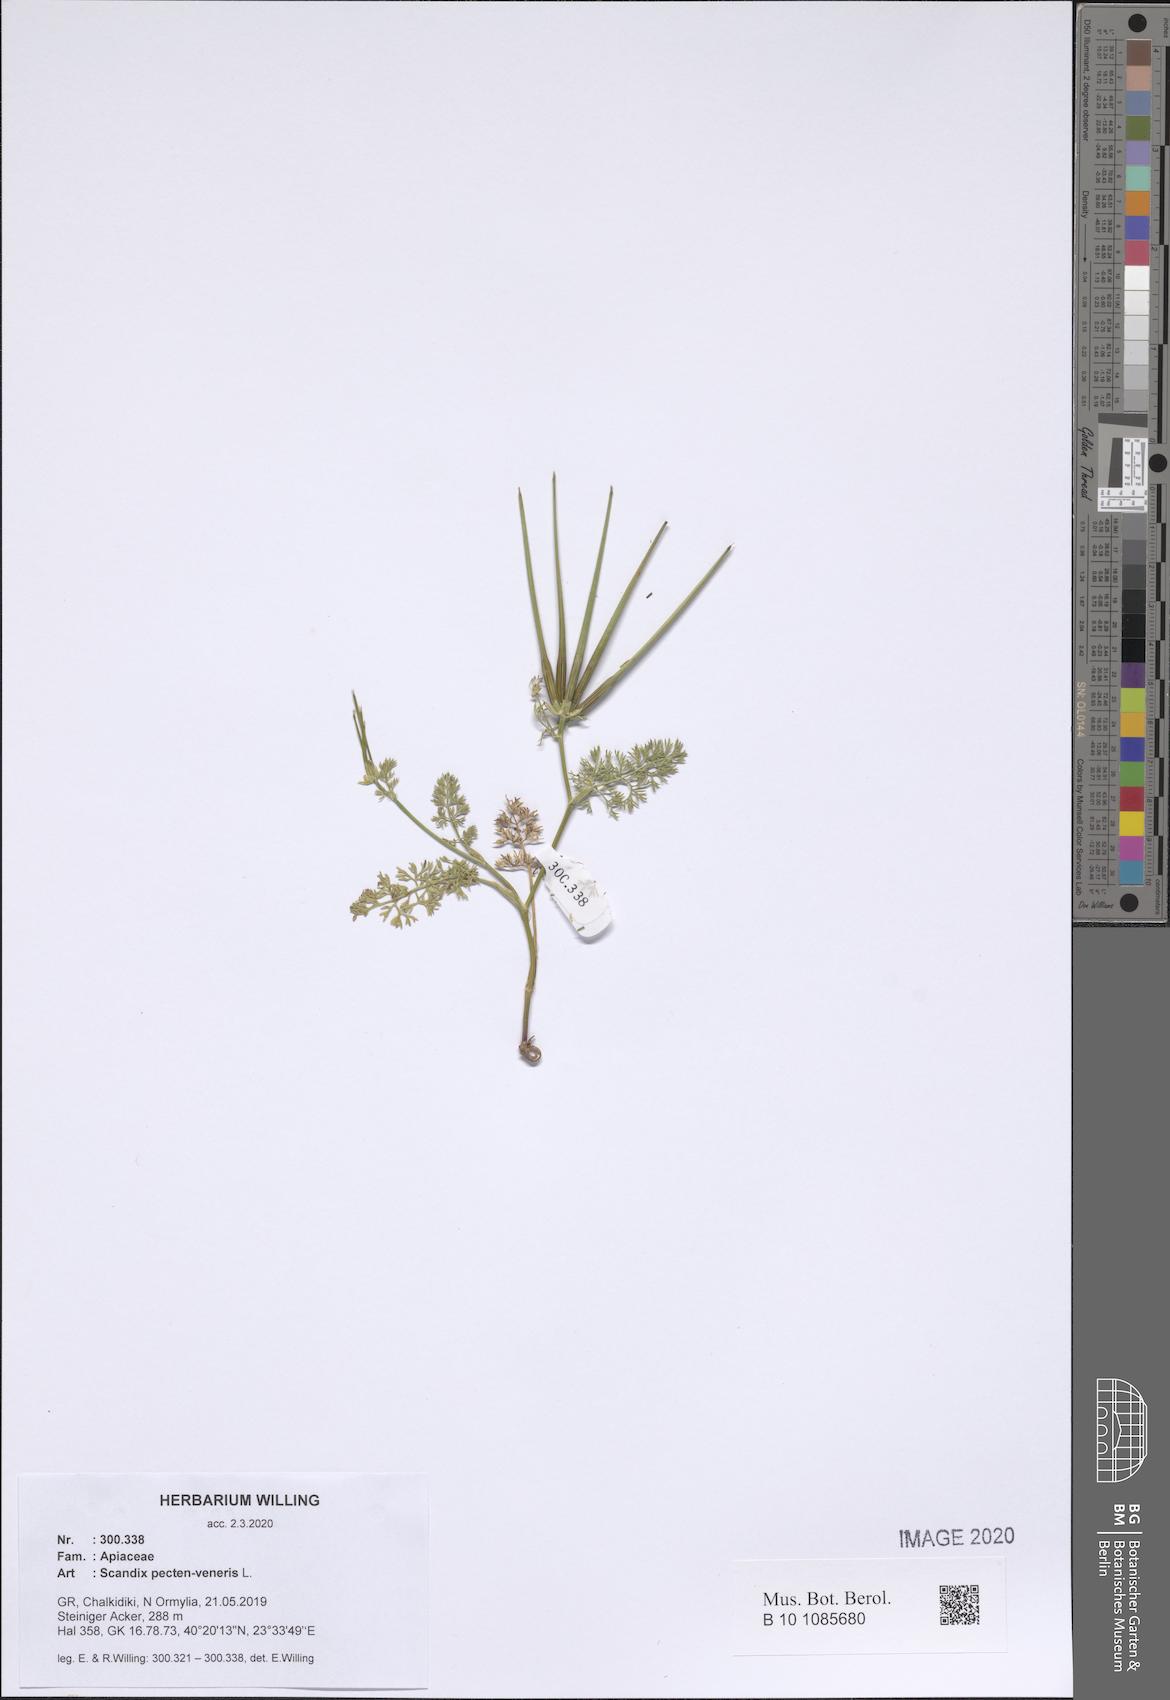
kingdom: Plantae
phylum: Tracheophyta
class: Magnoliopsida
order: Apiales
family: Apiaceae
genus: Scandix
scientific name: Scandix pecten-veneris
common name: Shepherd's-needle
